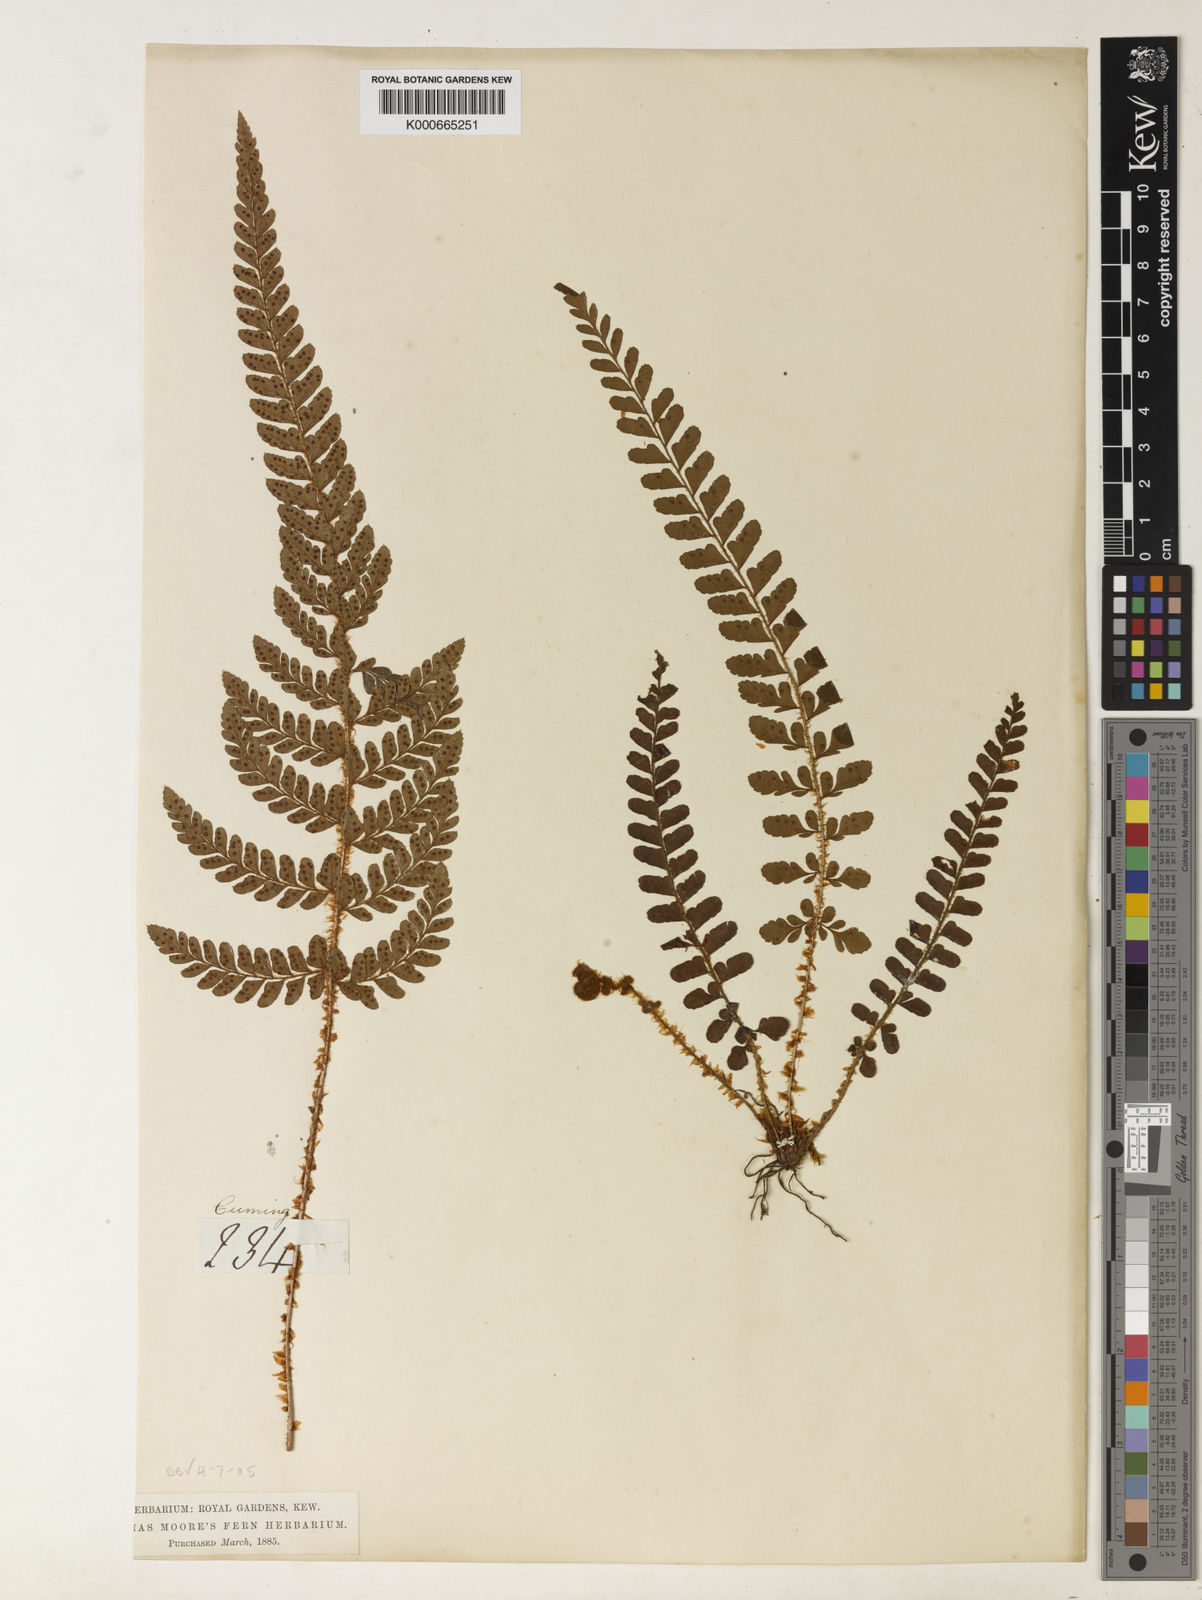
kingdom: Plantae
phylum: Tracheophyta
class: Polypodiopsida
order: Polypodiales
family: Dryopteridaceae
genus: Dryopteris
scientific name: Dryopteris filix-mas
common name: Male fern
